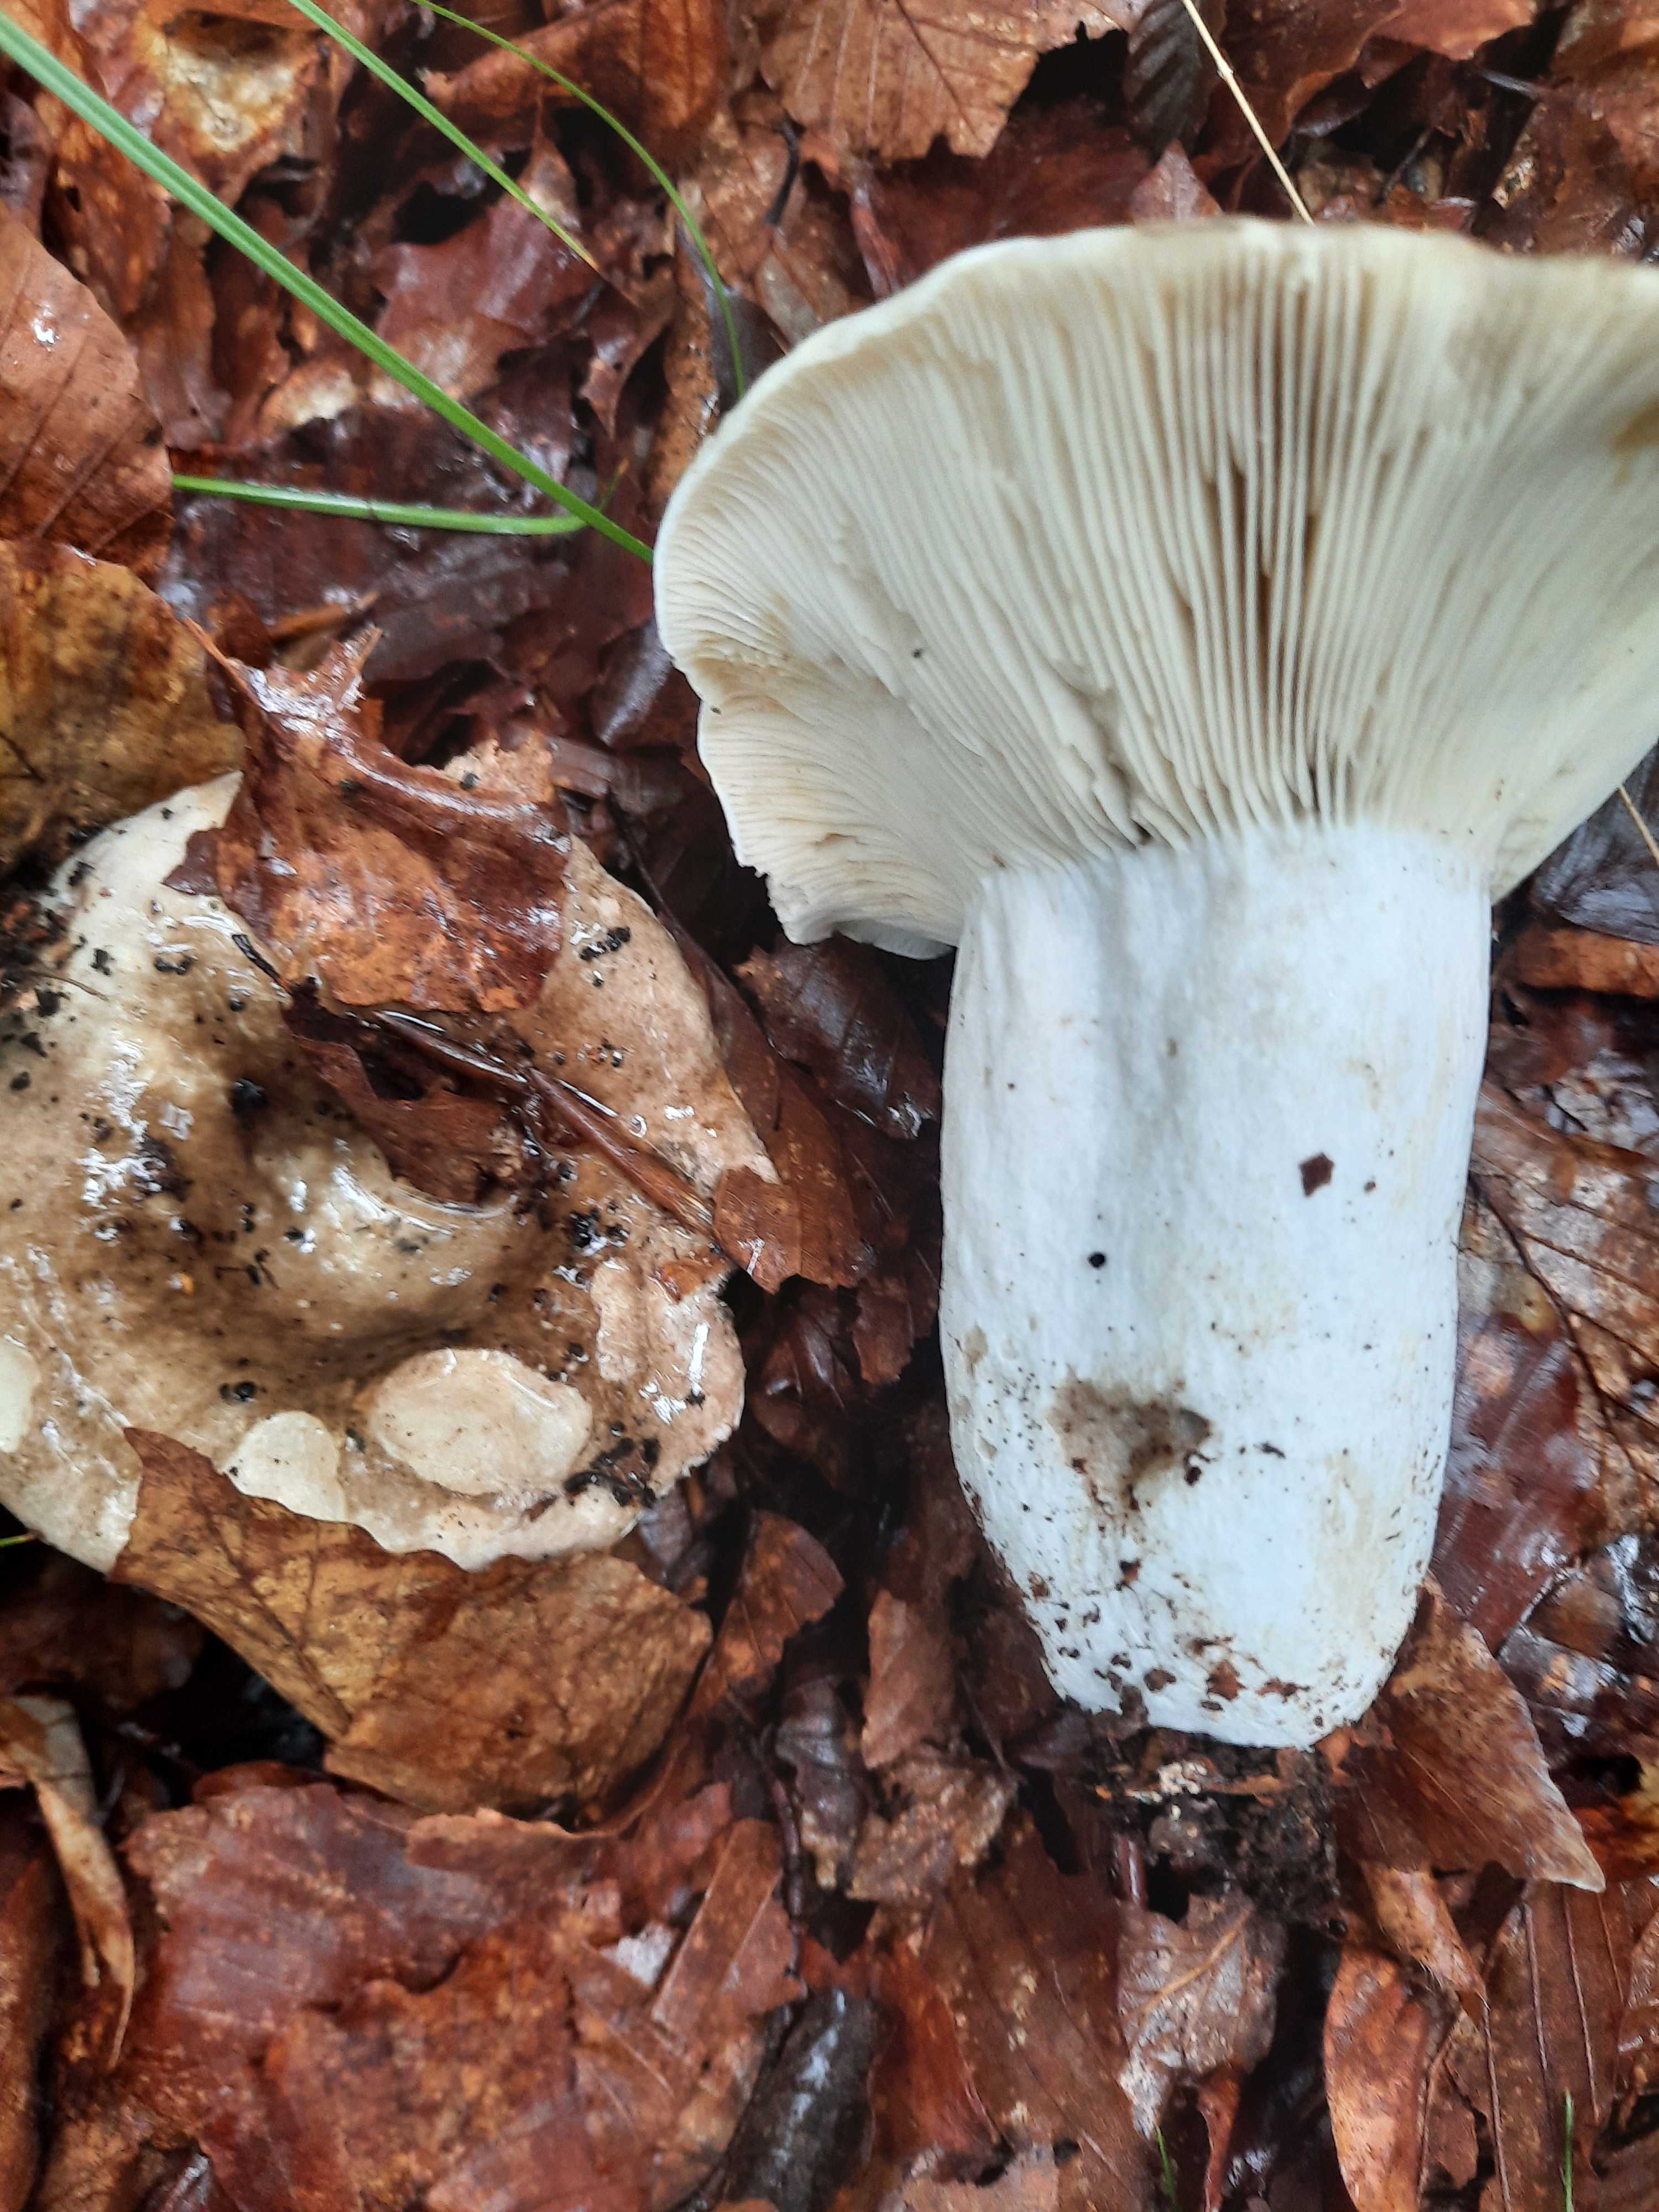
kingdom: Fungi
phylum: Basidiomycota
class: Agaricomycetes
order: Russulales
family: Russulaceae
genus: Russula
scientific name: Russula
